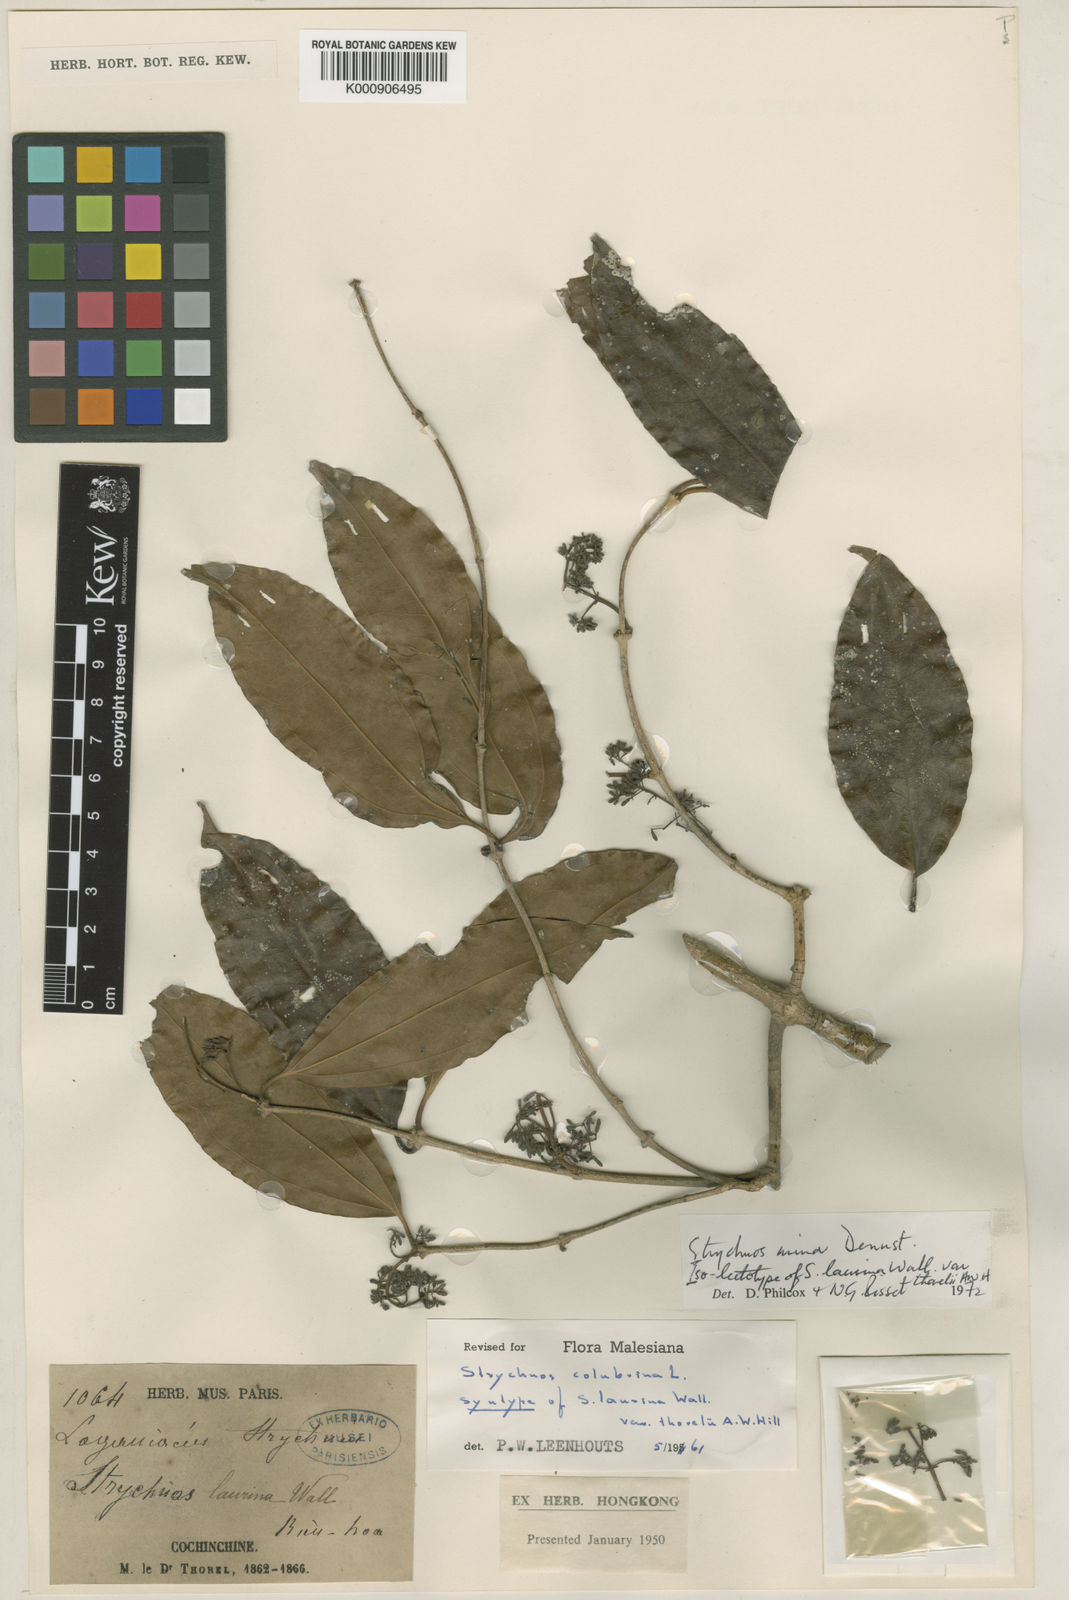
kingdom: Plantae
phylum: Tracheophyta
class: Magnoliopsida
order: Gentianales
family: Loganiaceae
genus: Strychnos
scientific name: Strychnos minor
